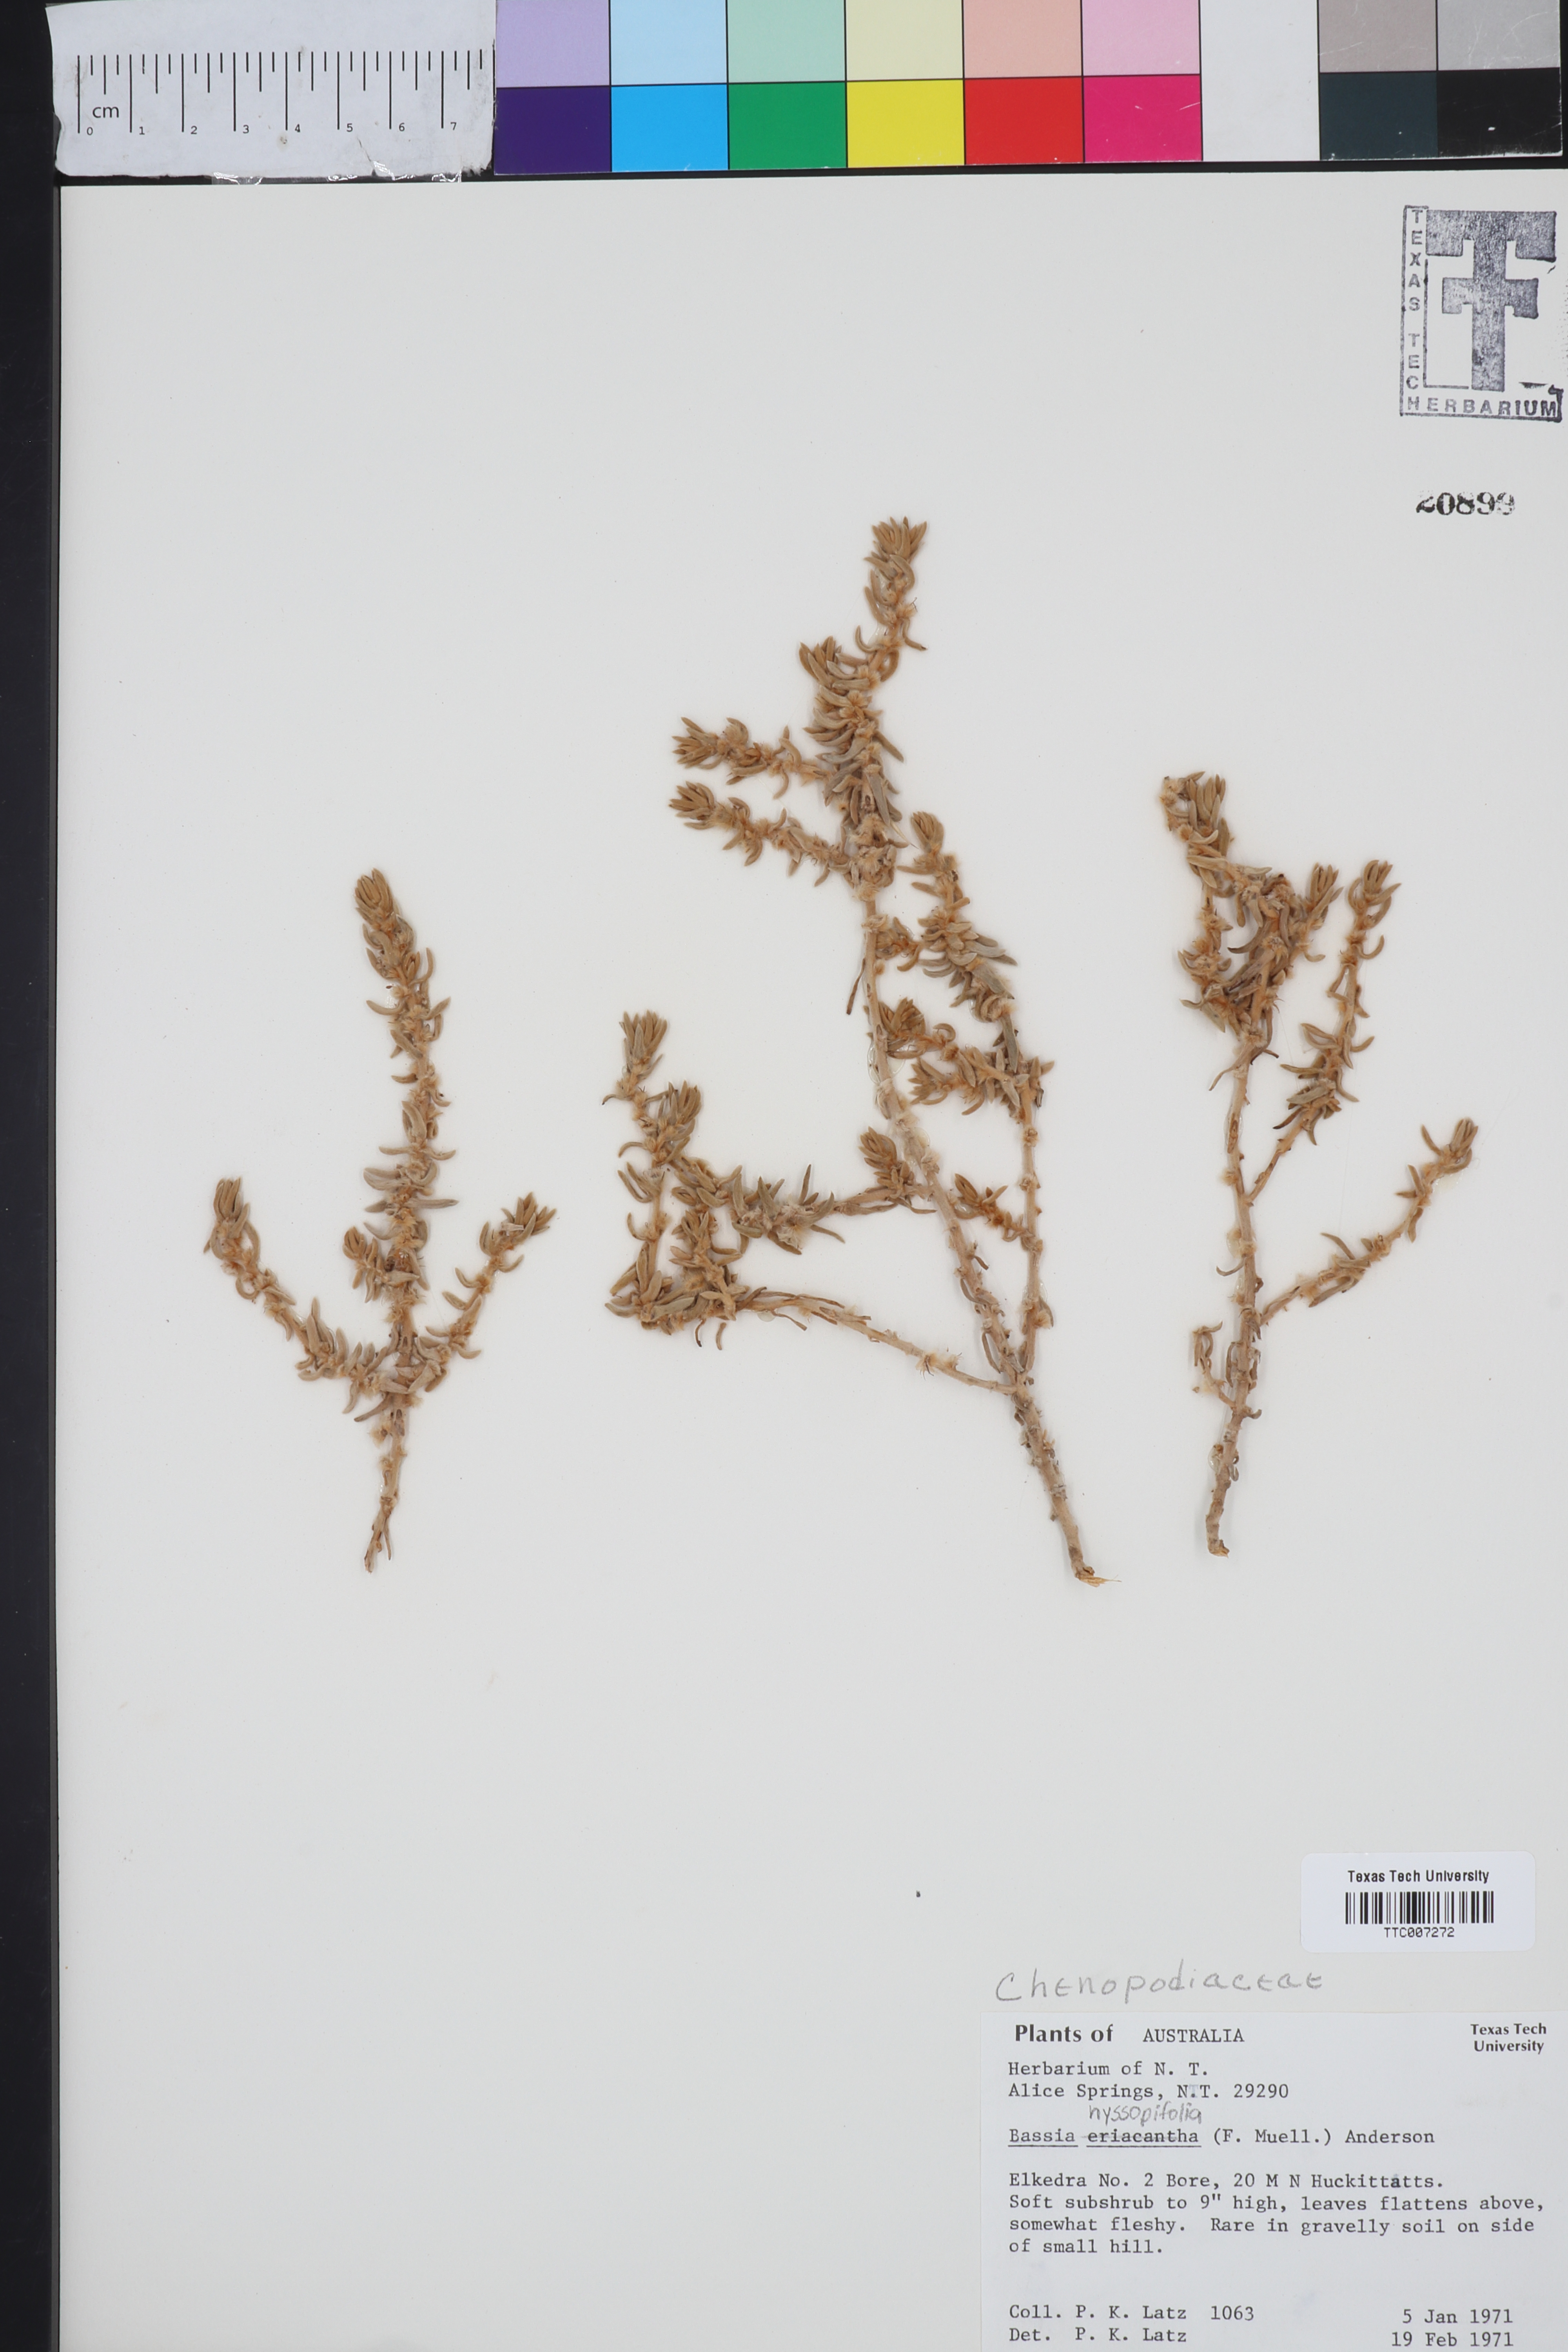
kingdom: Plantae
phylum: Tracheophyta
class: Magnoliopsida
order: Caryophyllales
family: Amaranthaceae
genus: Sclerolaena
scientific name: Sclerolaena eriacantha
